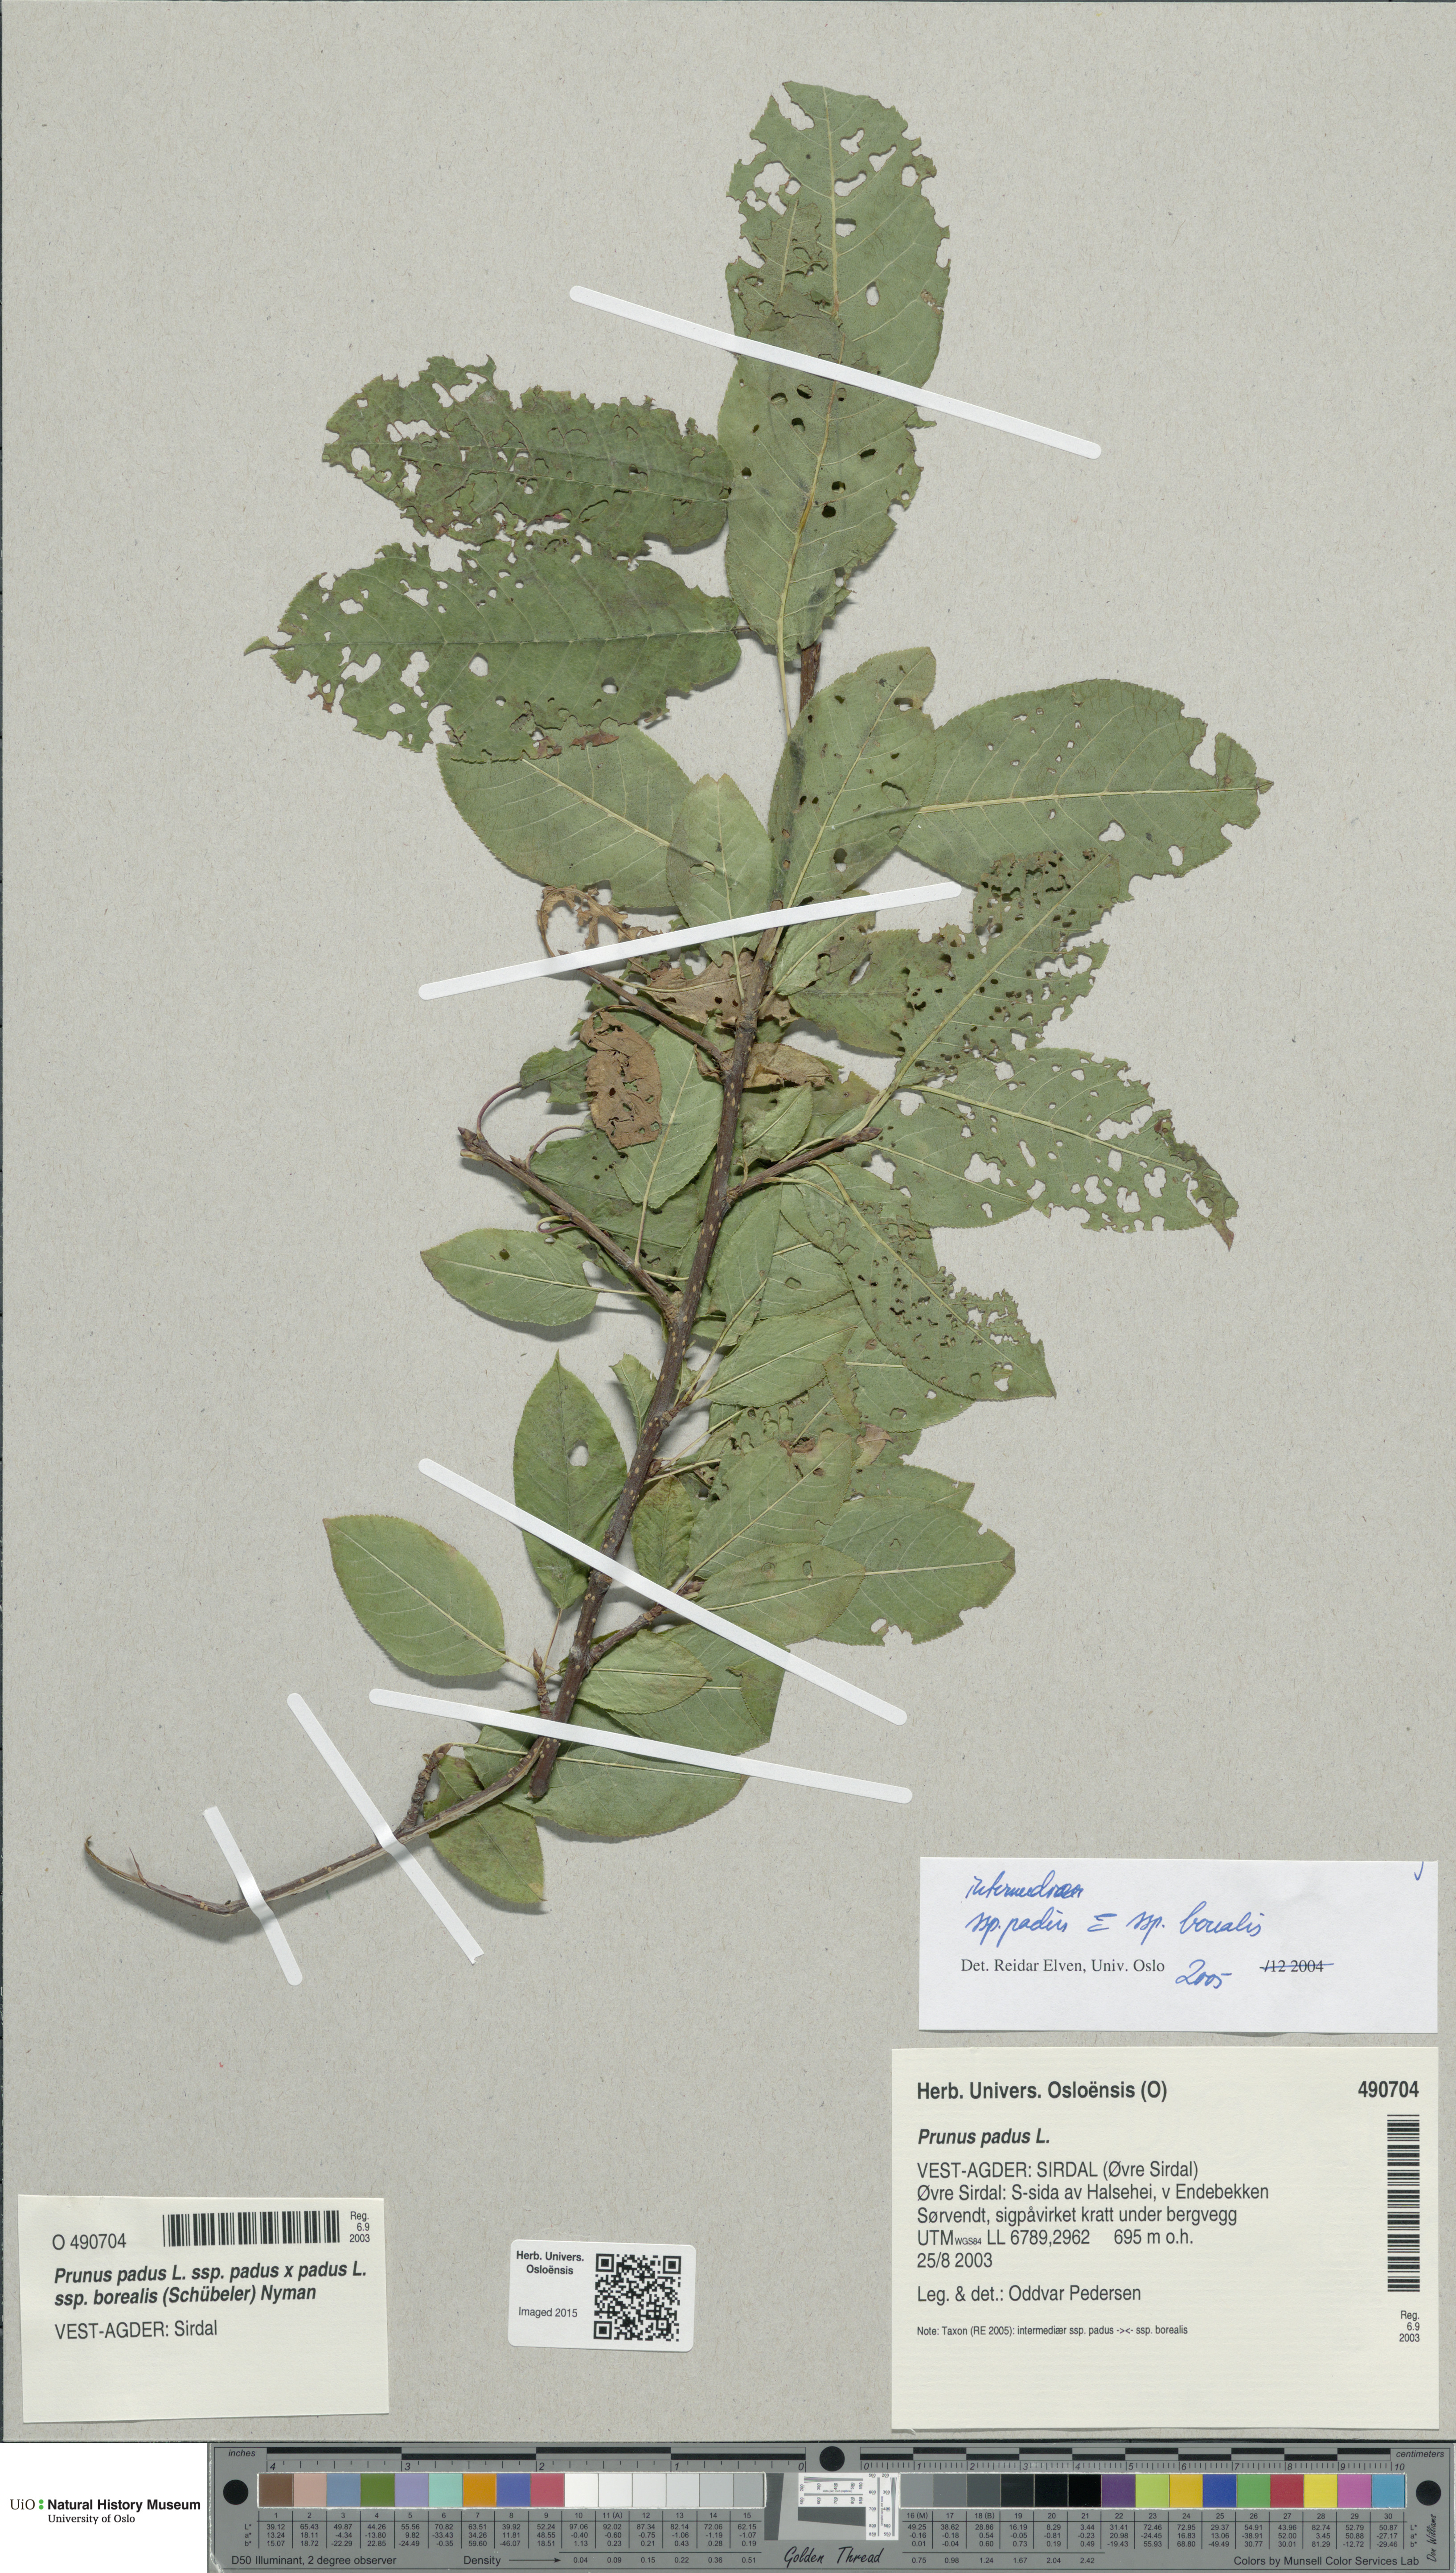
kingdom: Plantae
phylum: Tracheophyta
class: Magnoliopsida
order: Rosales
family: Rosaceae
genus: Prunus
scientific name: Prunus
